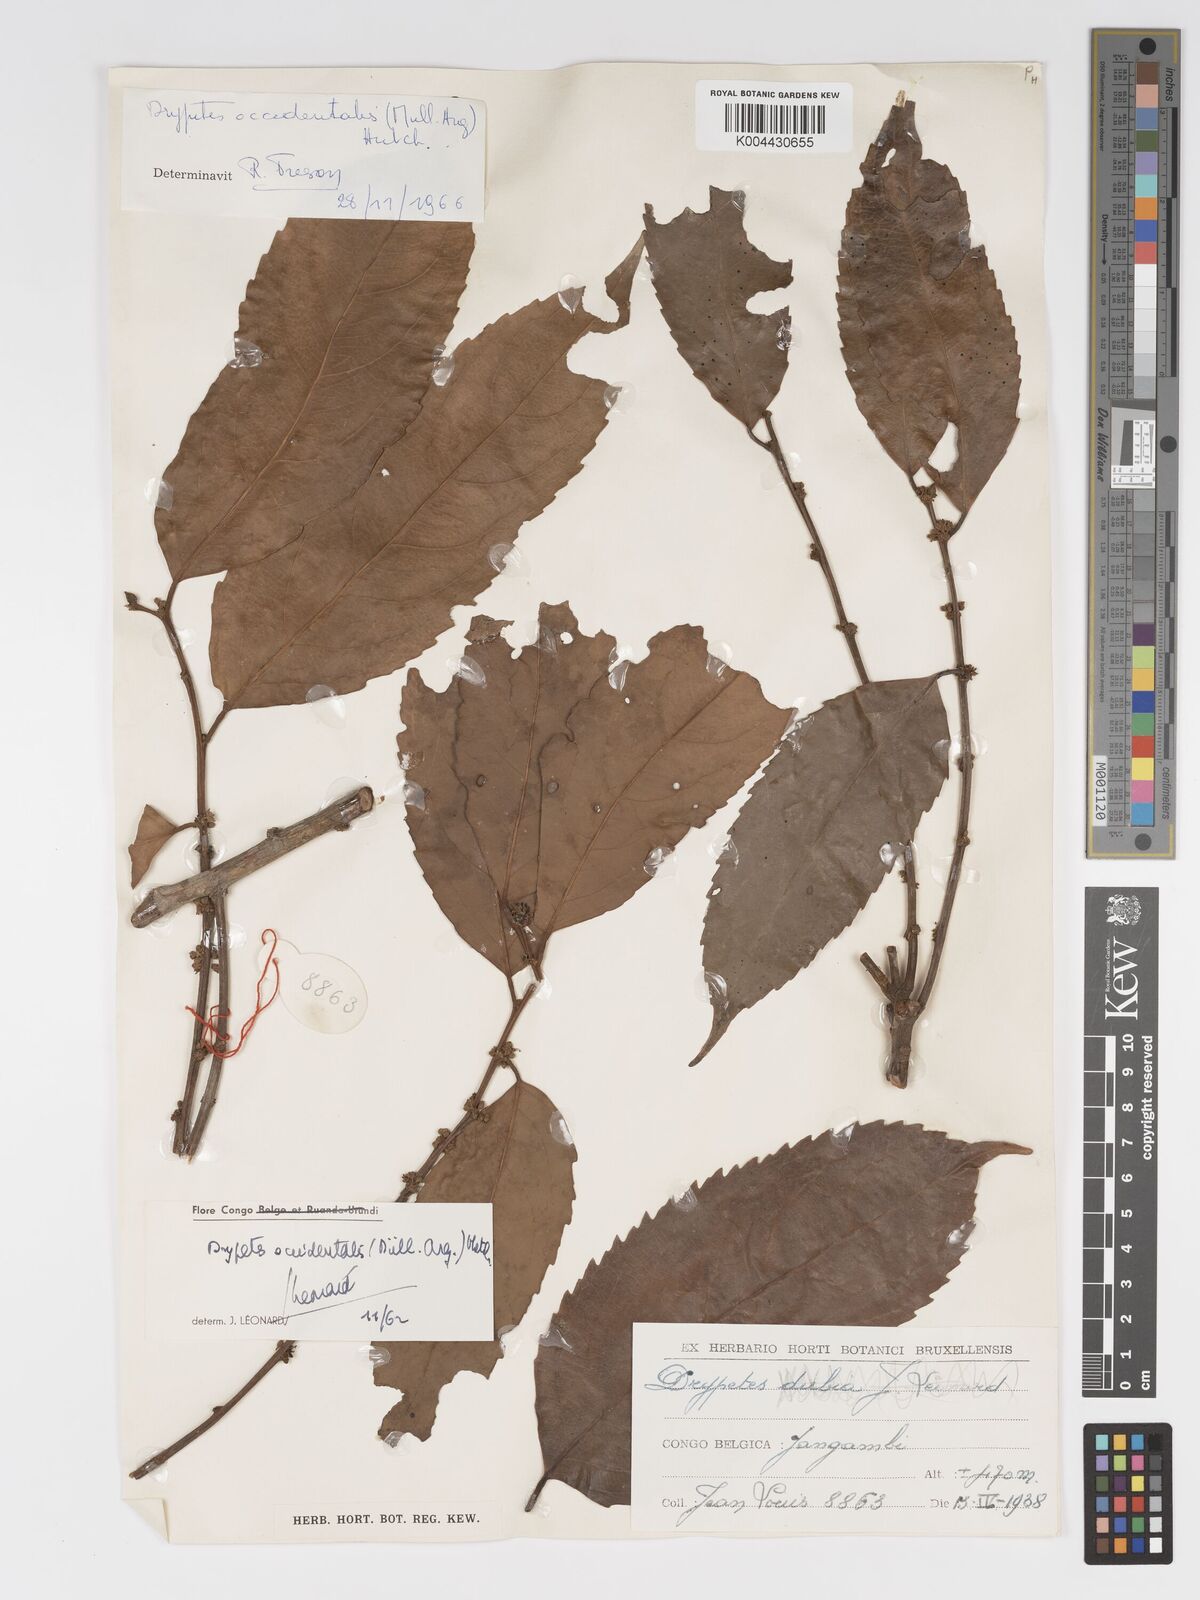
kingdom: Plantae
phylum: Tracheophyta
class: Magnoliopsida
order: Malpighiales
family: Putranjivaceae
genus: Drypetes
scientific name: Drypetes occidentalis
